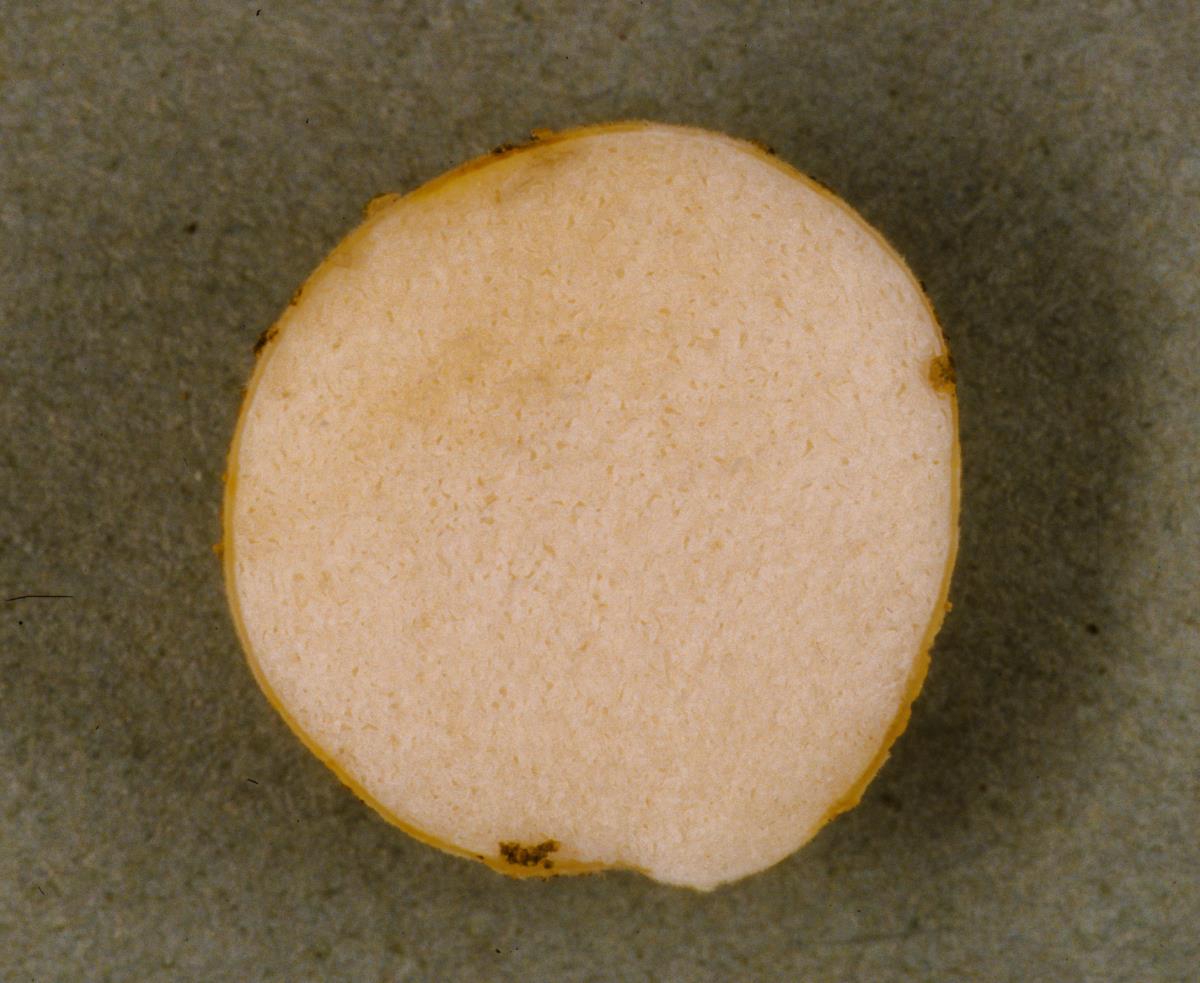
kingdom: Fungi
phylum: Basidiomycota
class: Agaricomycetes
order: Russulales
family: Russulaceae
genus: Russula
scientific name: Russula parvisaxoides
